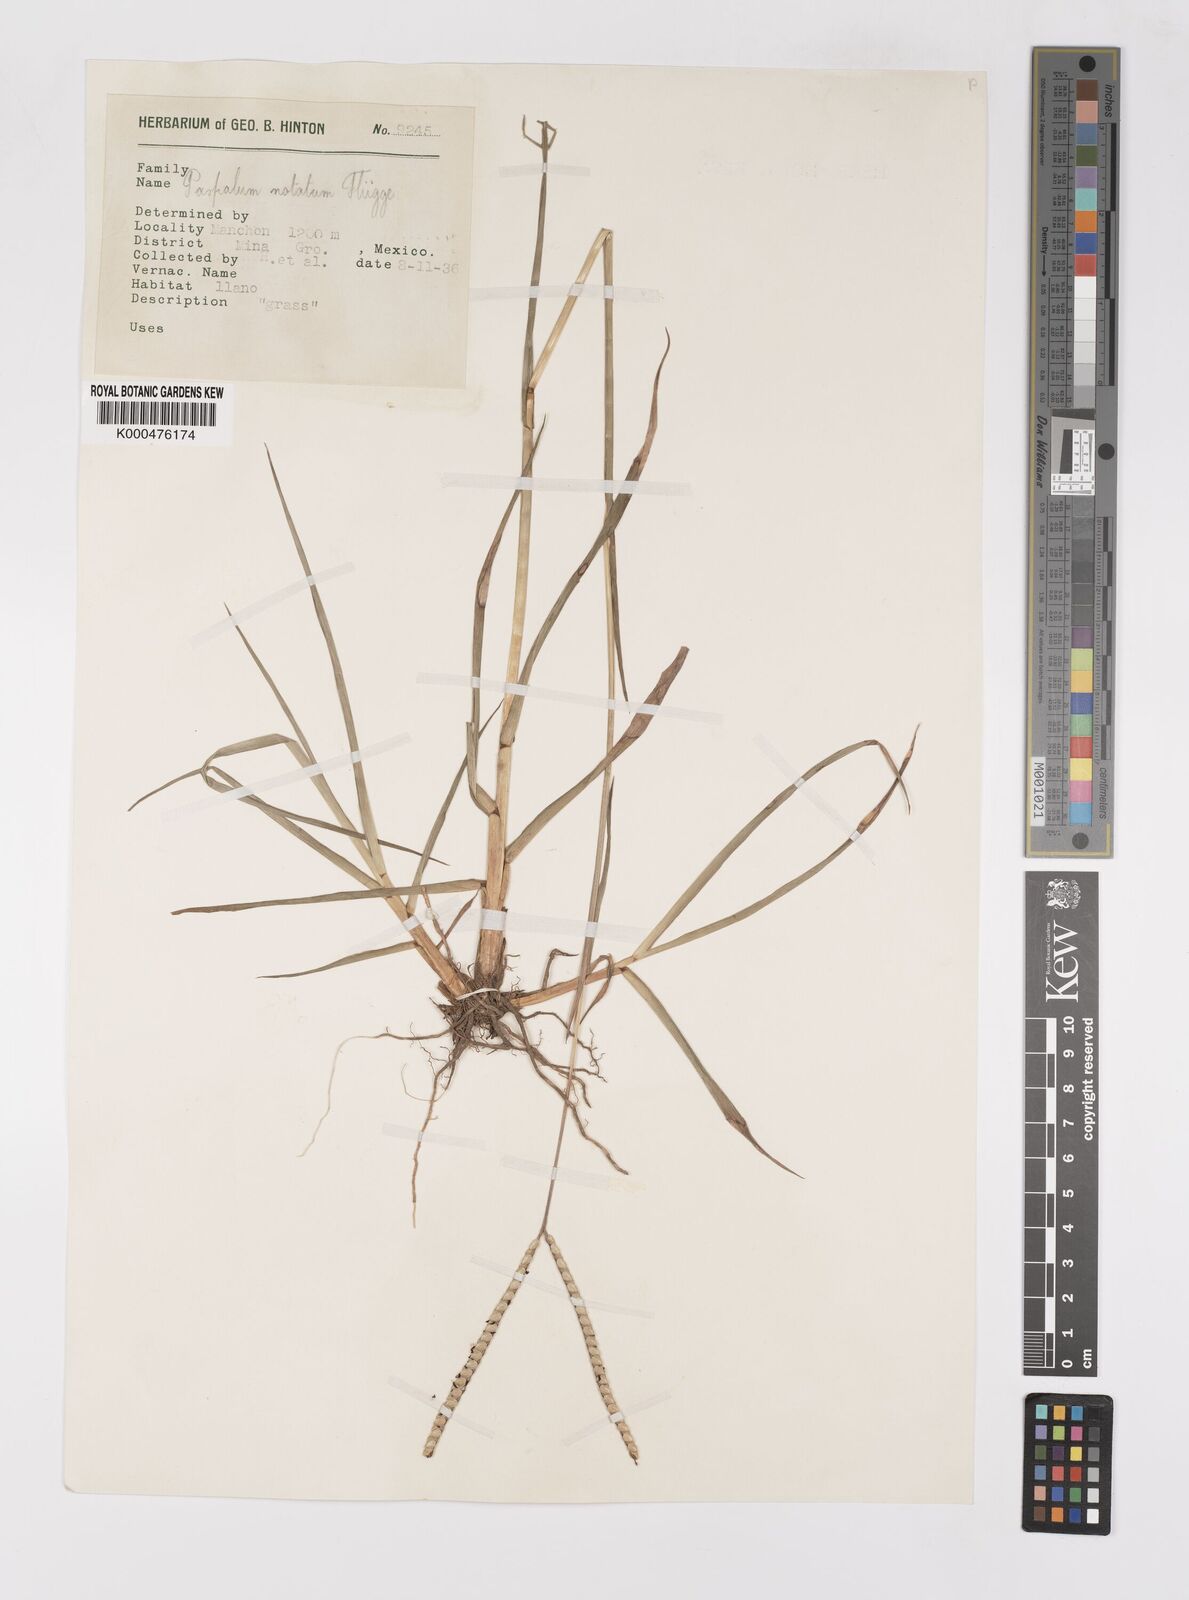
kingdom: Plantae
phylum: Tracheophyta
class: Liliopsida
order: Poales
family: Poaceae
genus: Paspalum
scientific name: Paspalum
